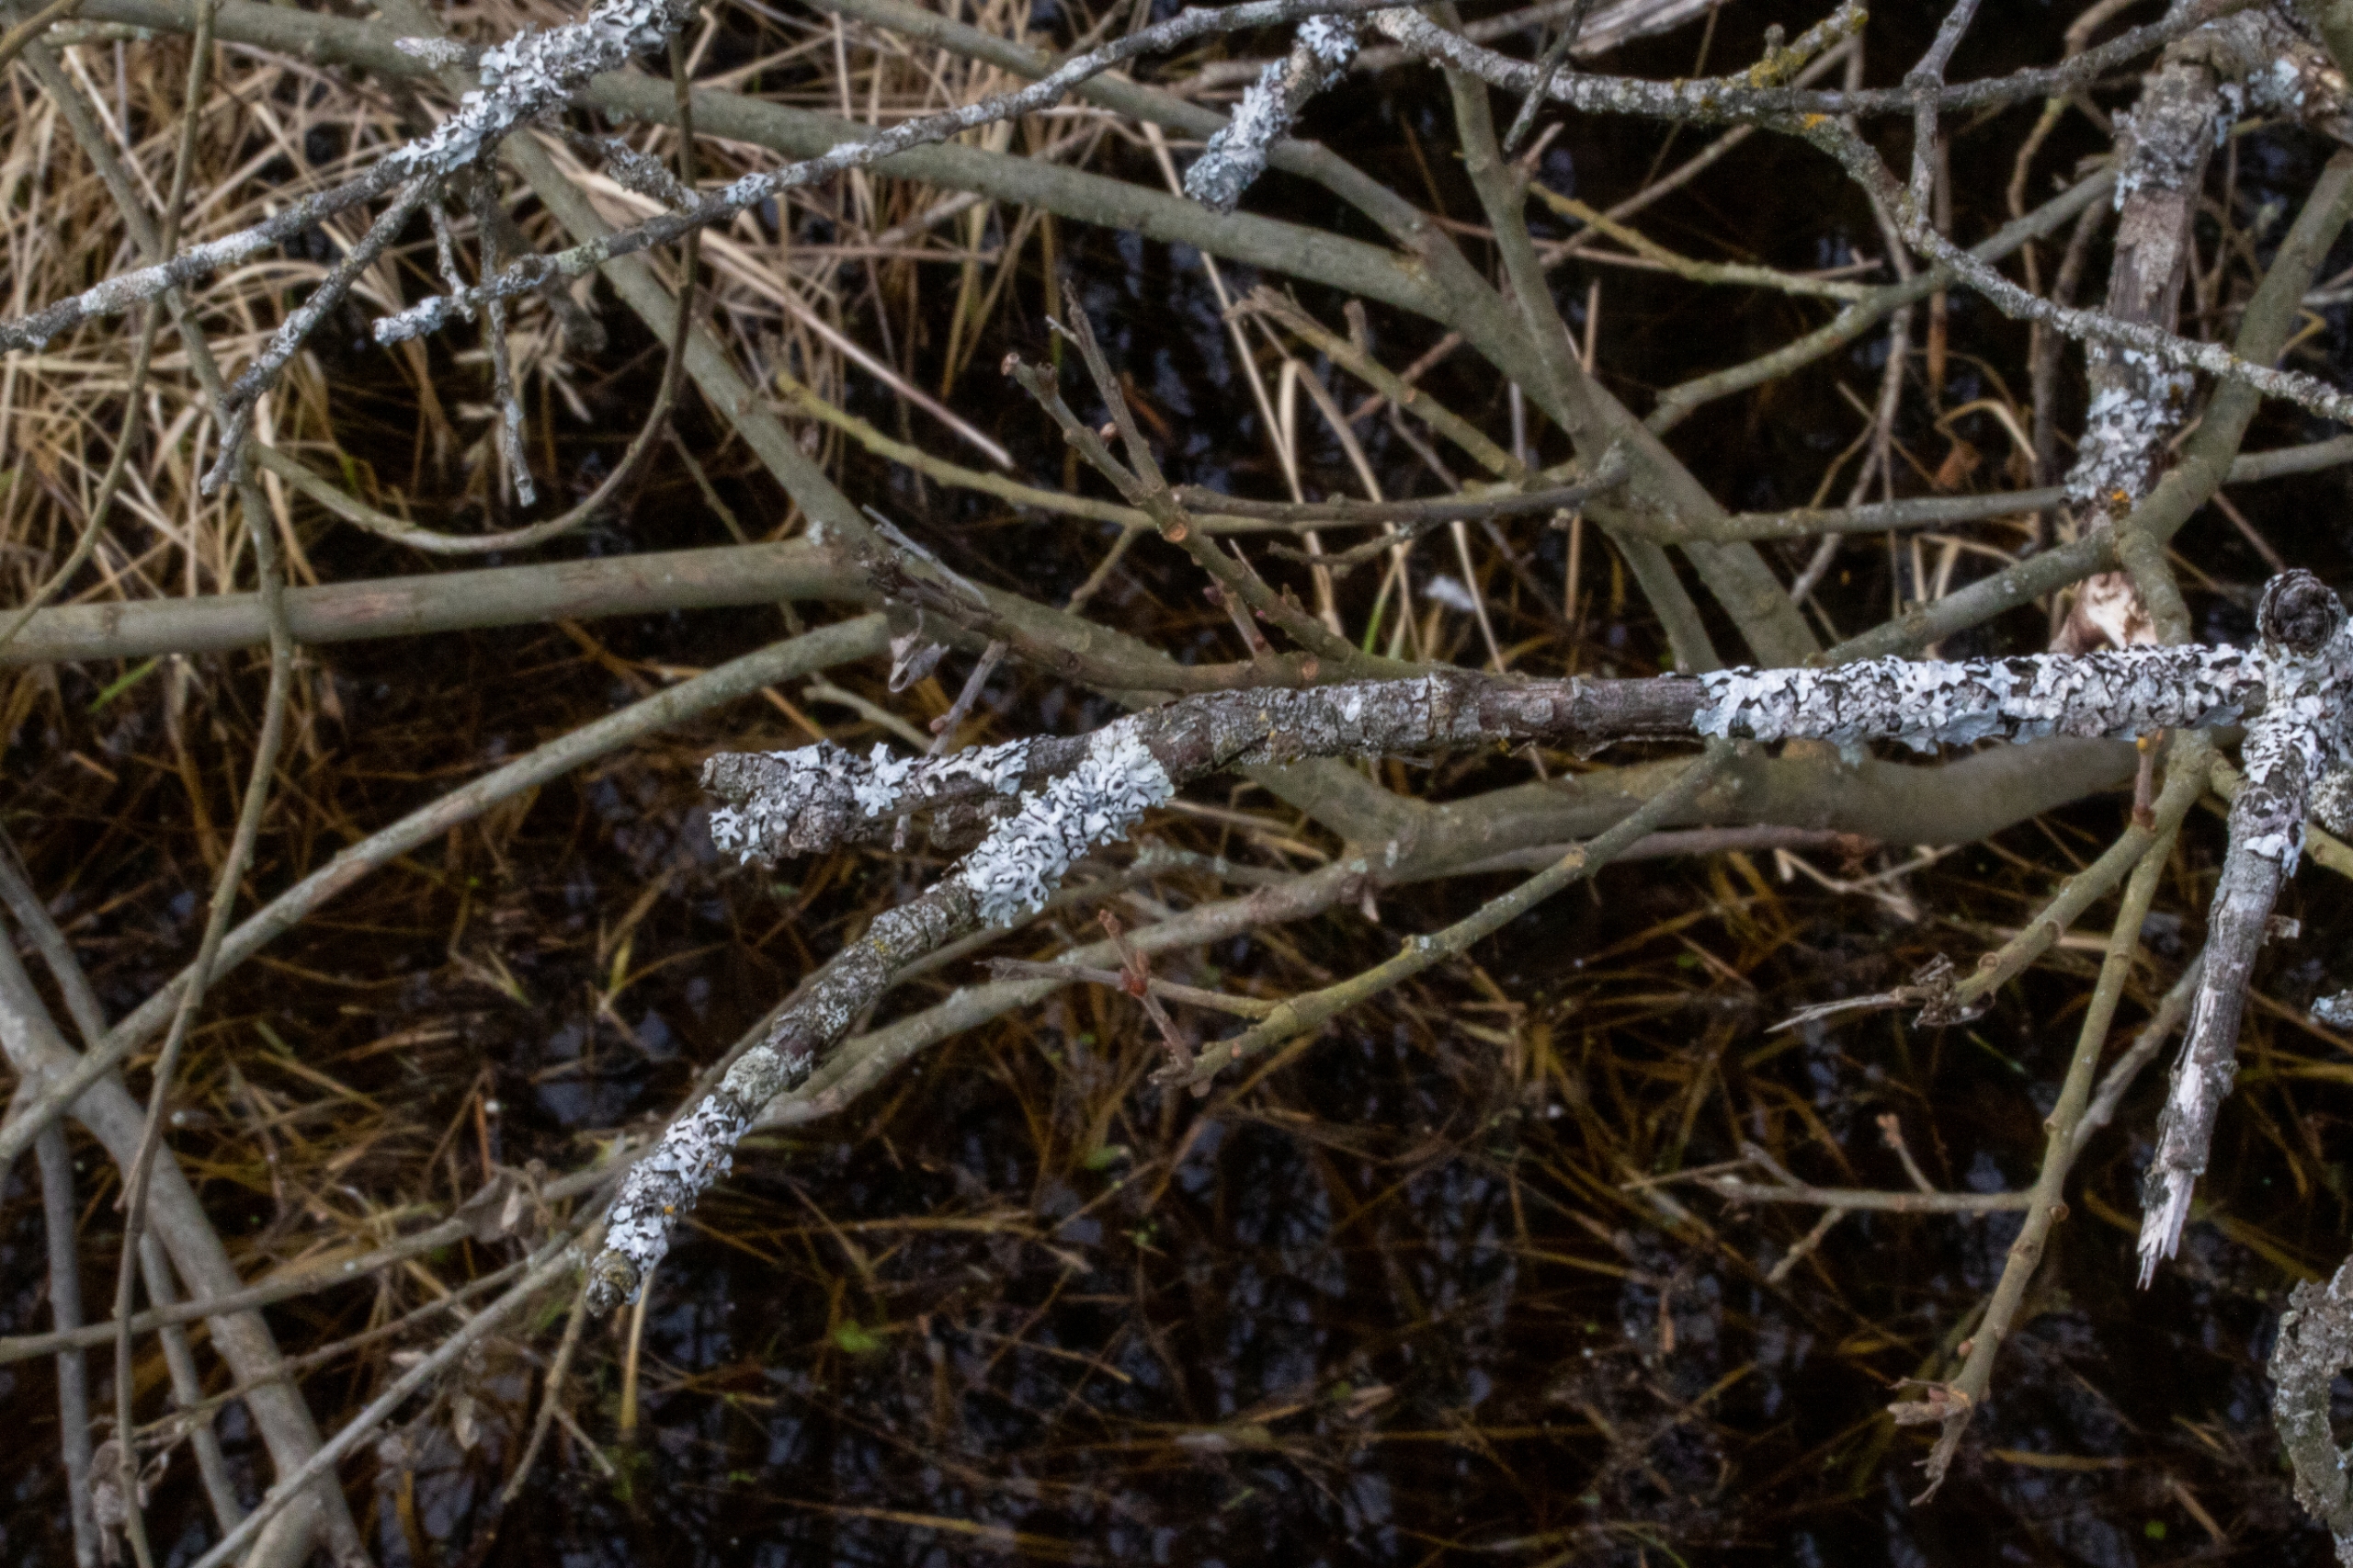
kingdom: Fungi
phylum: Ascomycota
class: Lecanoromycetes
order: Lecanorales
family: Parmeliaceae
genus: Hypogymnia
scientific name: Hypogymnia physodes
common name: Almindelig kvistlav
